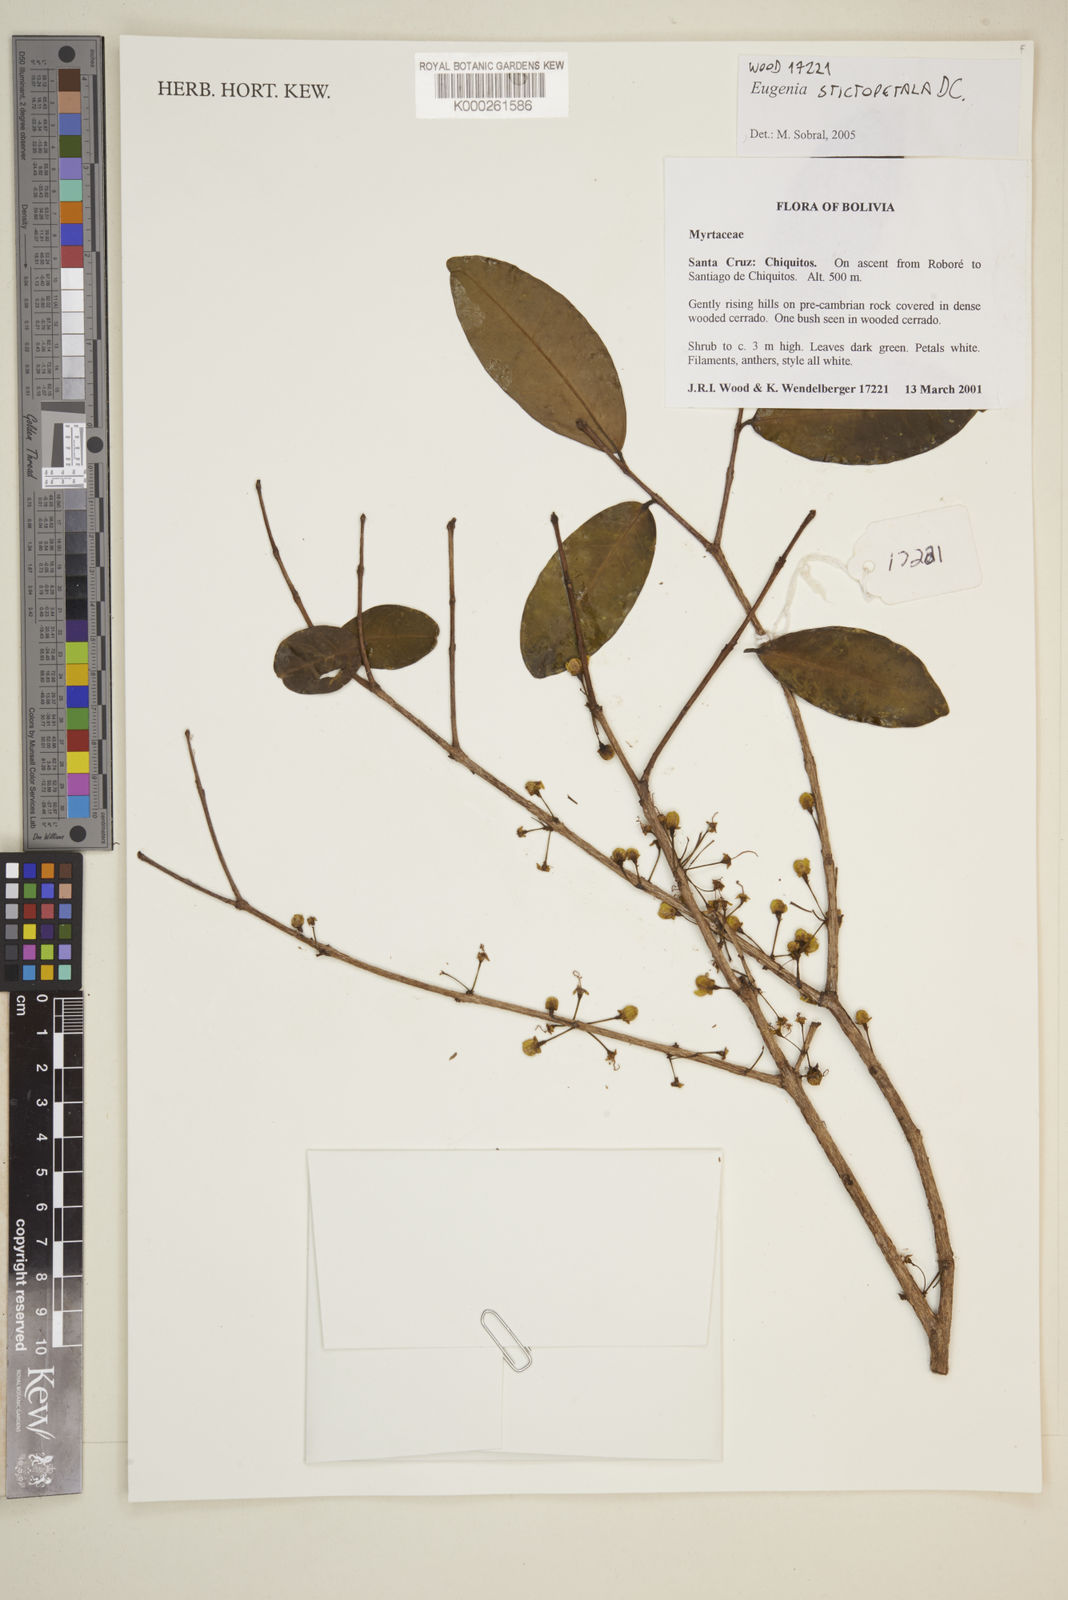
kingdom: Plantae
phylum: Tracheophyta
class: Magnoliopsida
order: Myrtales
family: Myrtaceae
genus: Eugenia
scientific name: Eugenia
